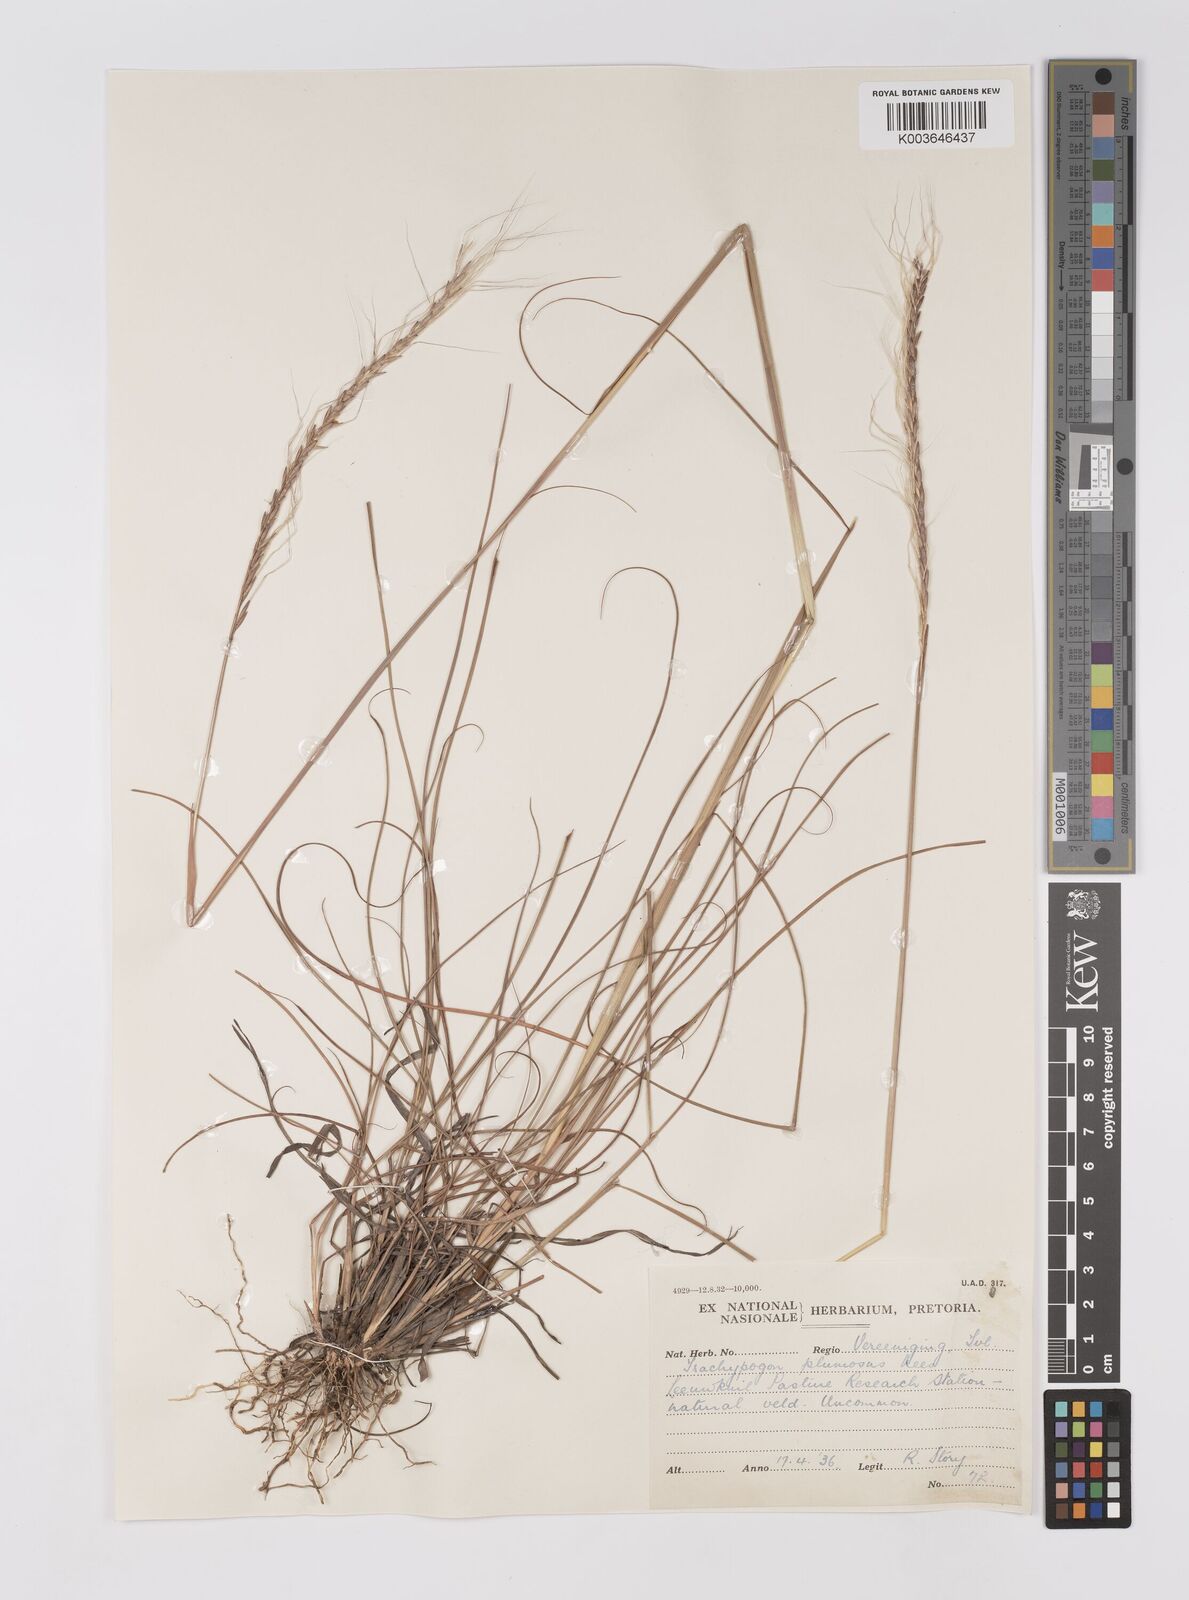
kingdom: Plantae
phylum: Tracheophyta
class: Liliopsida
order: Poales
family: Poaceae
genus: Trachypogon
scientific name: Trachypogon spicatus
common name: Crinkle-awn
